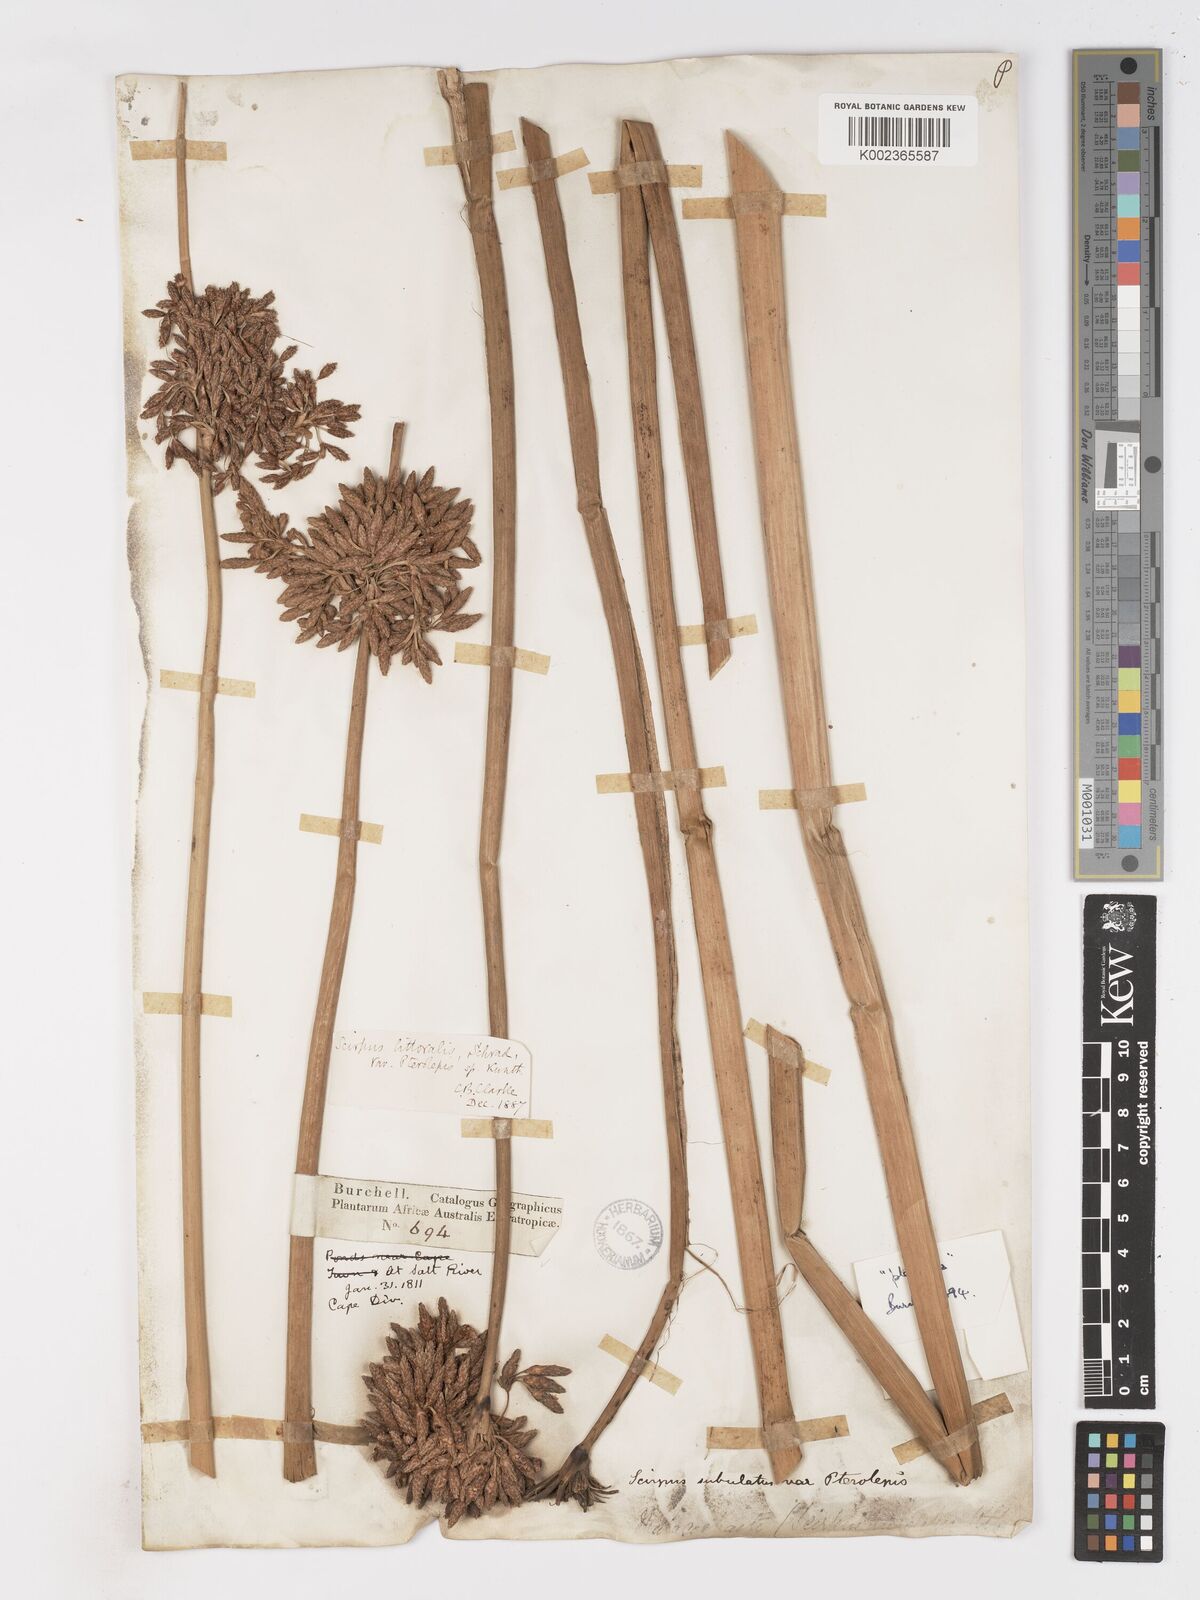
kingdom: Plantae
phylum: Tracheophyta
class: Liliopsida
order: Poales
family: Cyperaceae
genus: Schoenoplectus
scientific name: Schoenoplectus
